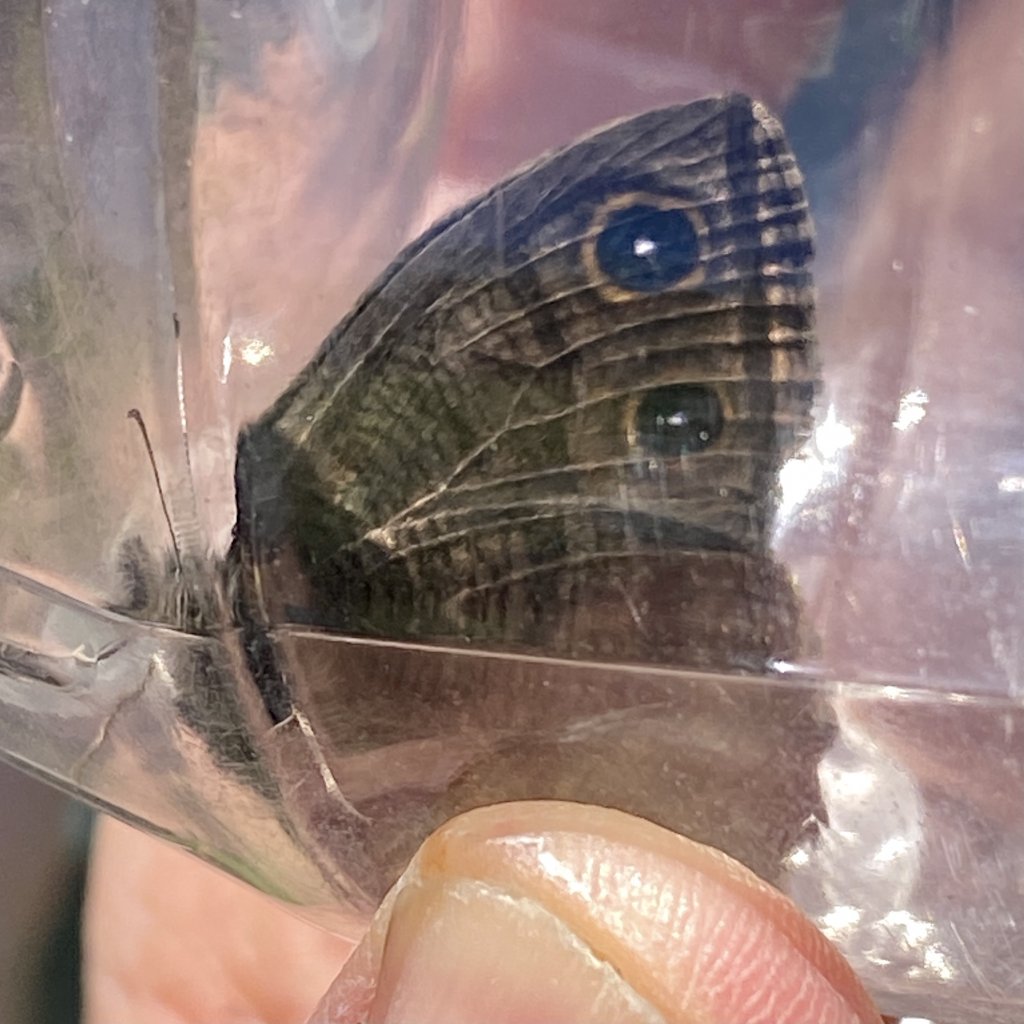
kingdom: Animalia
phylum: Arthropoda
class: Insecta
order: Lepidoptera
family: Nymphalidae
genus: Cercyonis
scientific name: Cercyonis pegala
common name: Common Wood-Nymph
